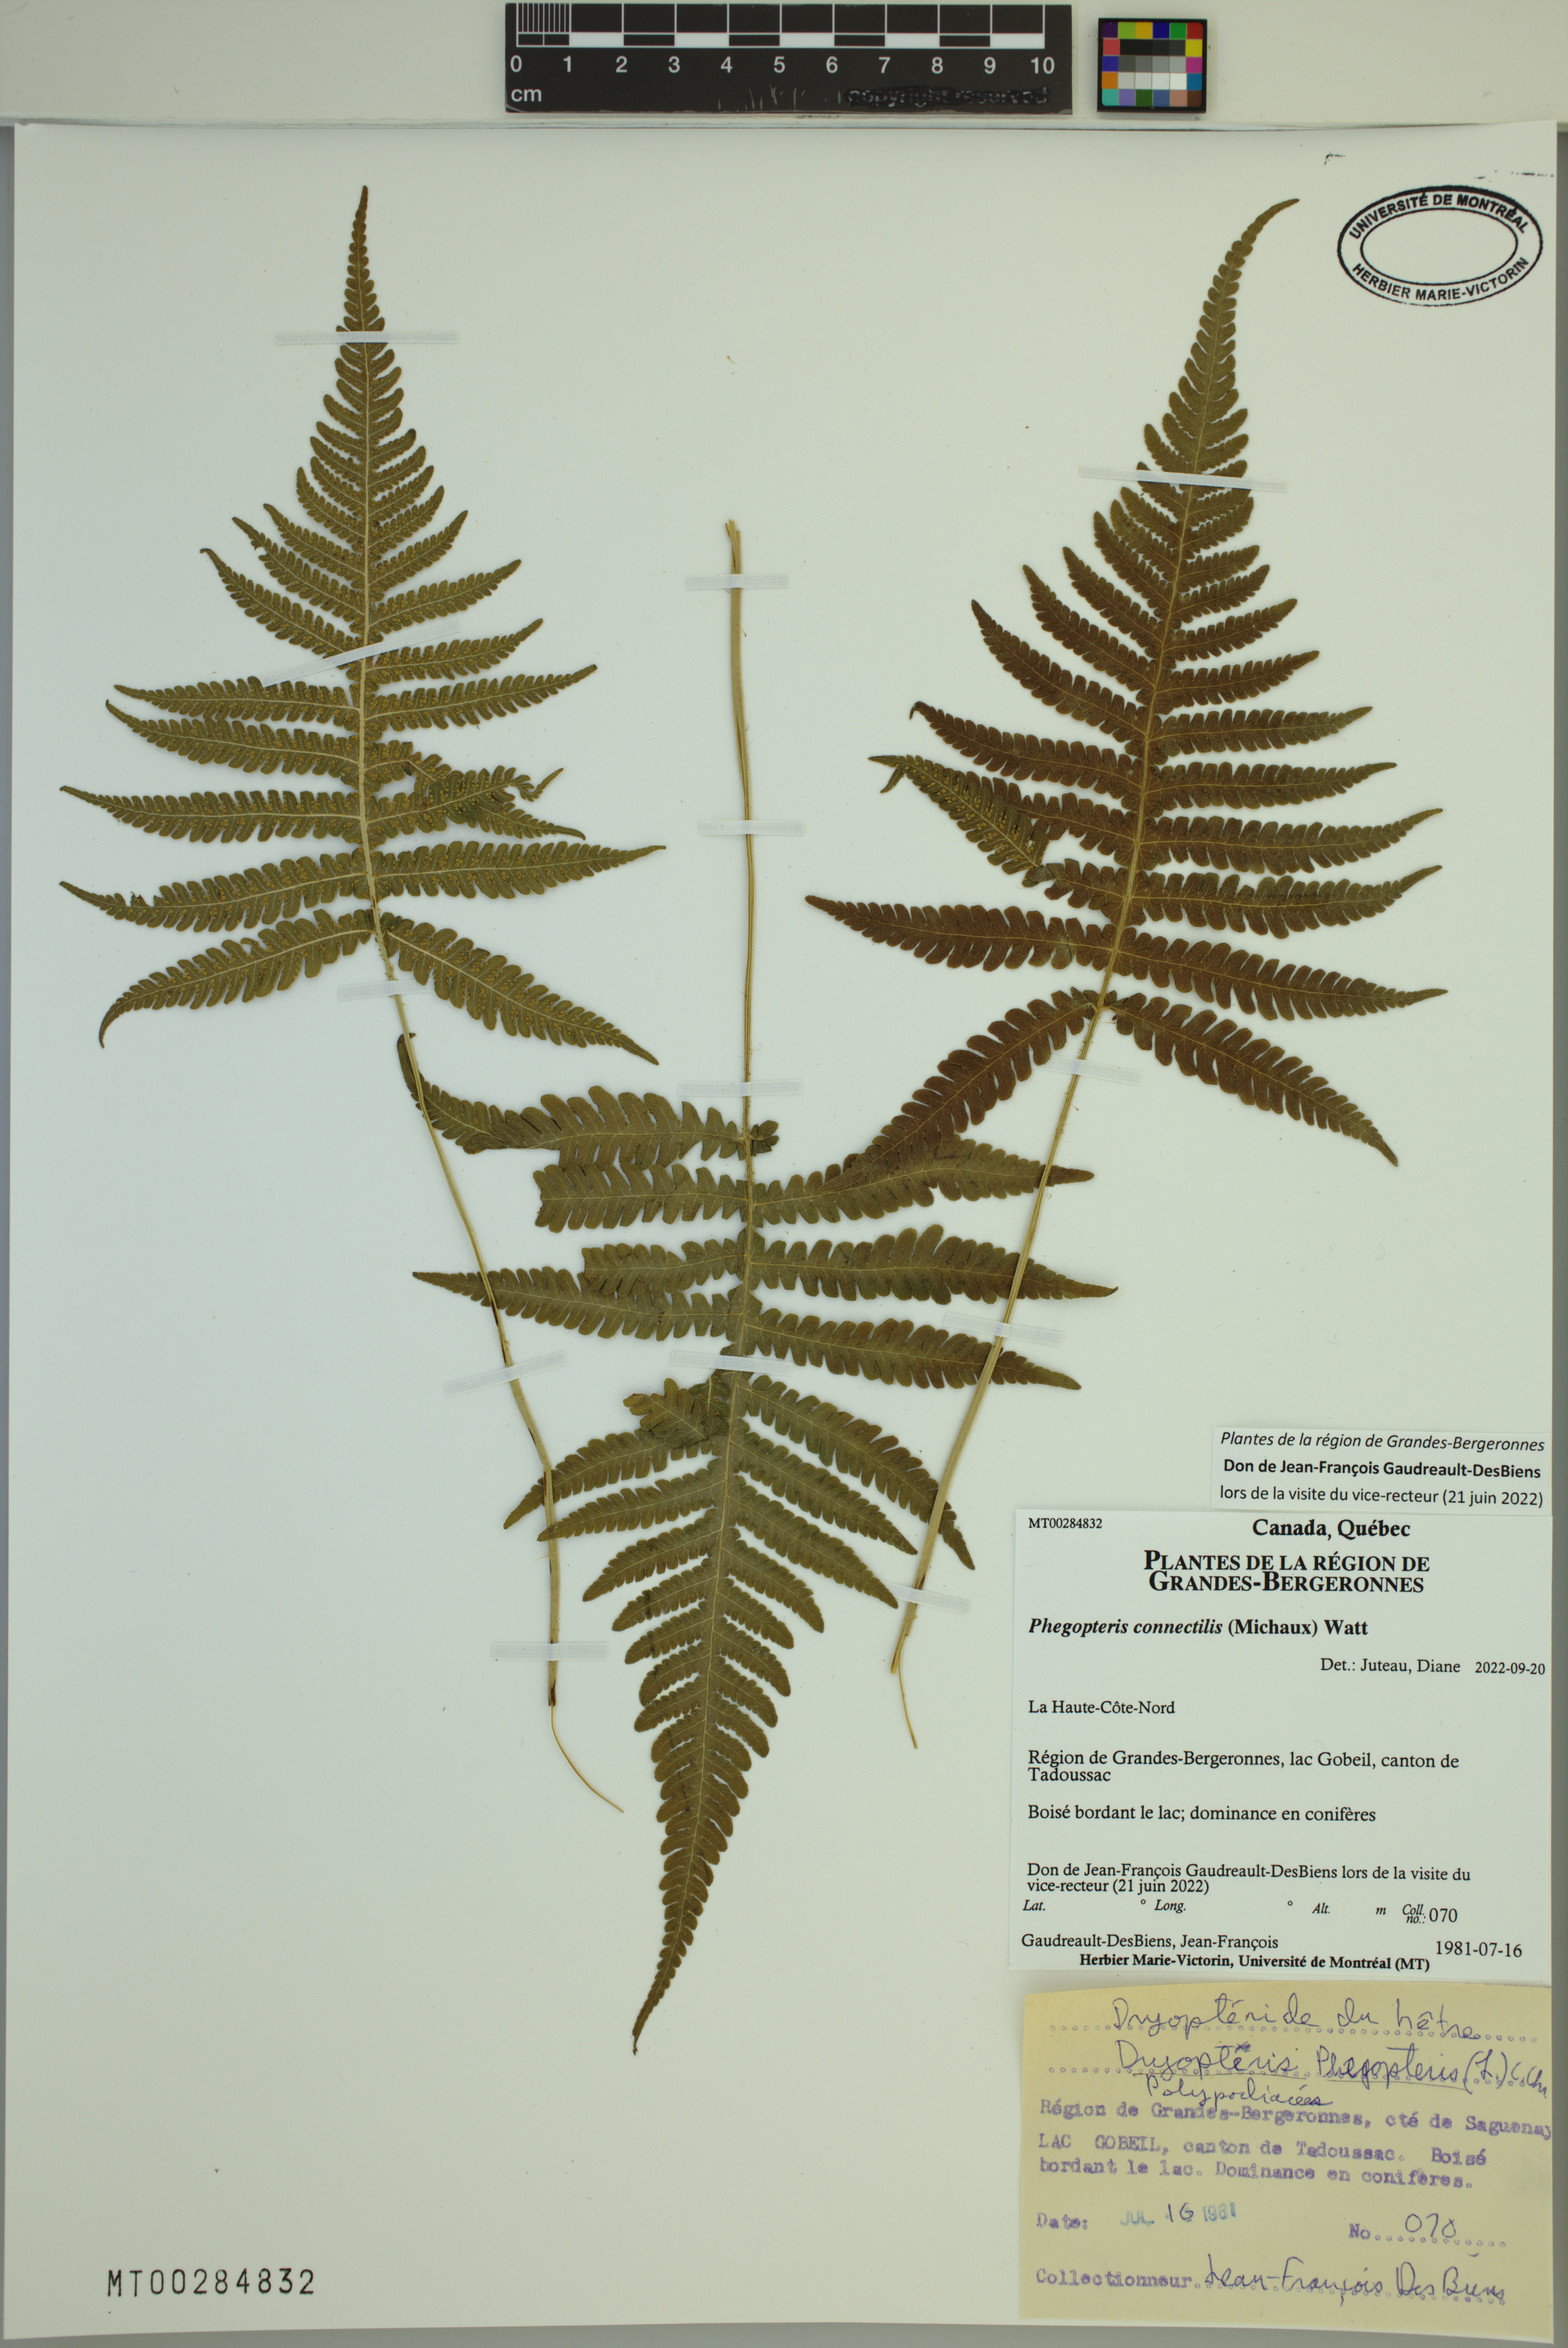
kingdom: Plantae
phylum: Tracheophyta
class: Polypodiopsida
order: Polypodiales
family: Thelypteridaceae
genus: Phegopteris
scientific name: Phegopteris connectilis
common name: Beech fern
